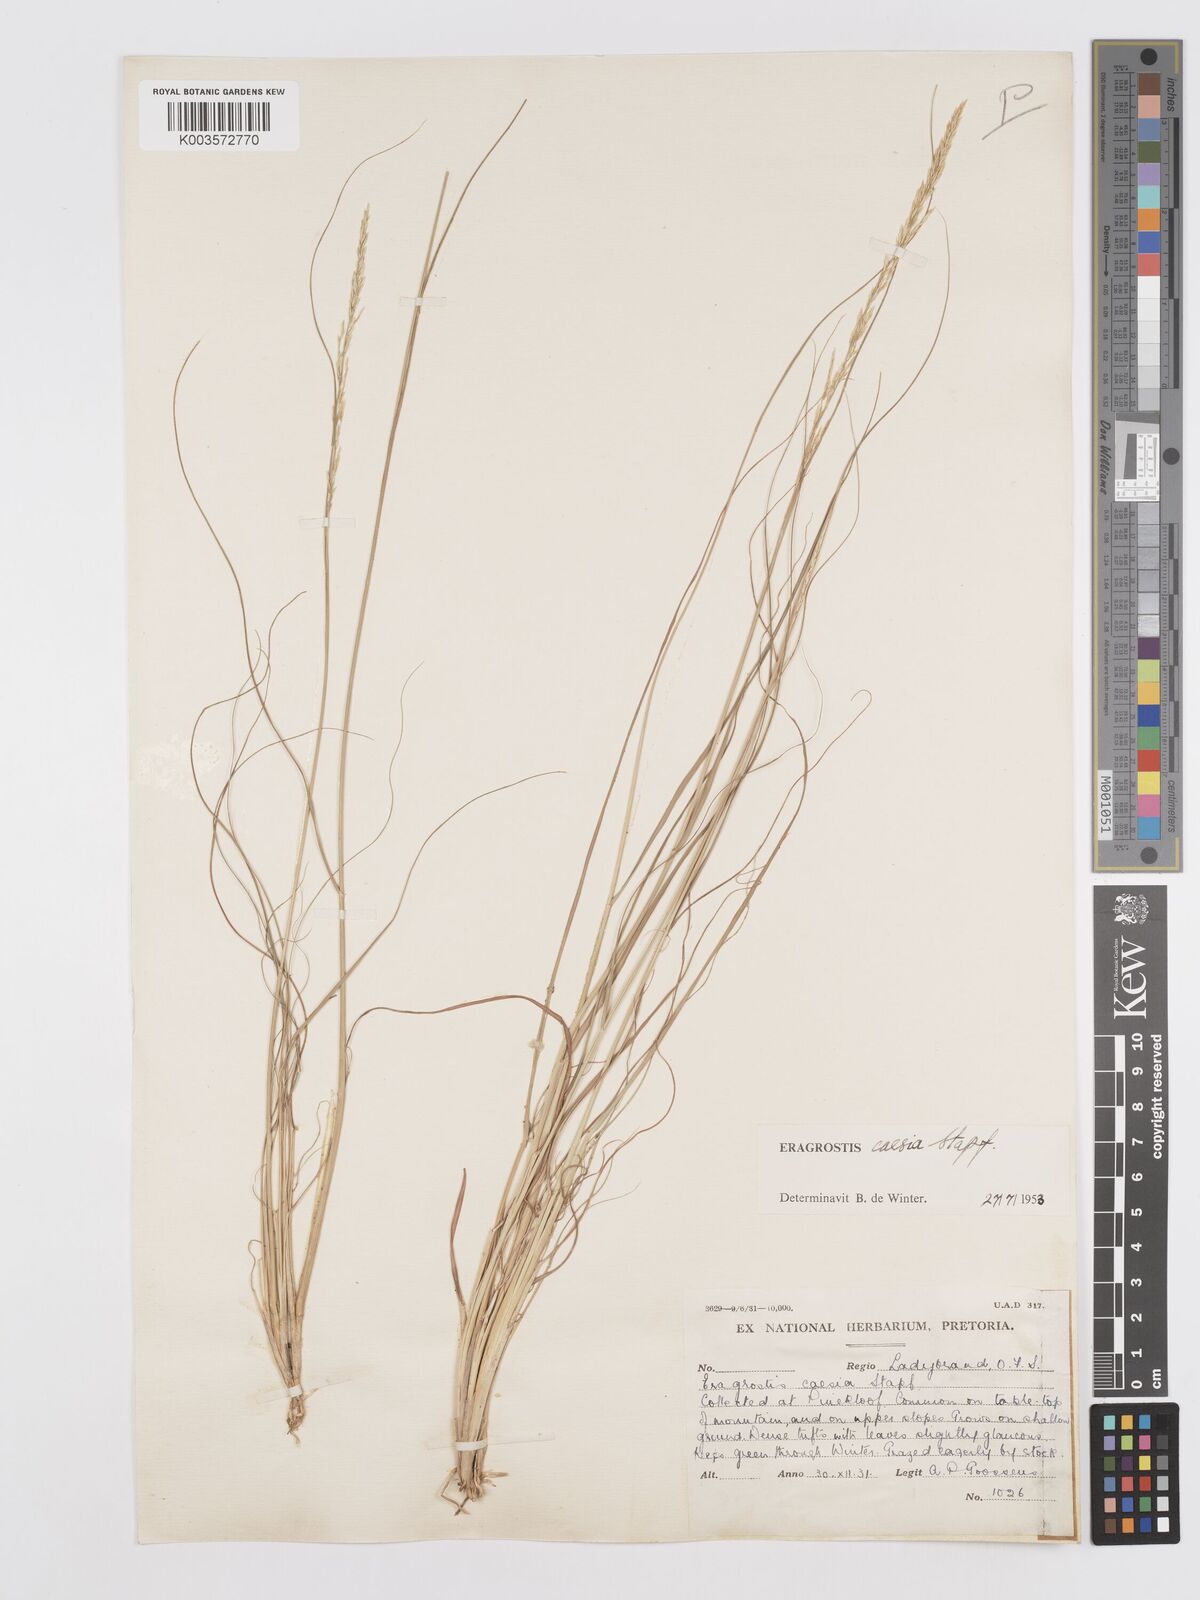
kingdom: Plantae
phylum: Tracheophyta
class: Liliopsida
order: Poales
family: Poaceae
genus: Eragrostis
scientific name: Eragrostis caesia
